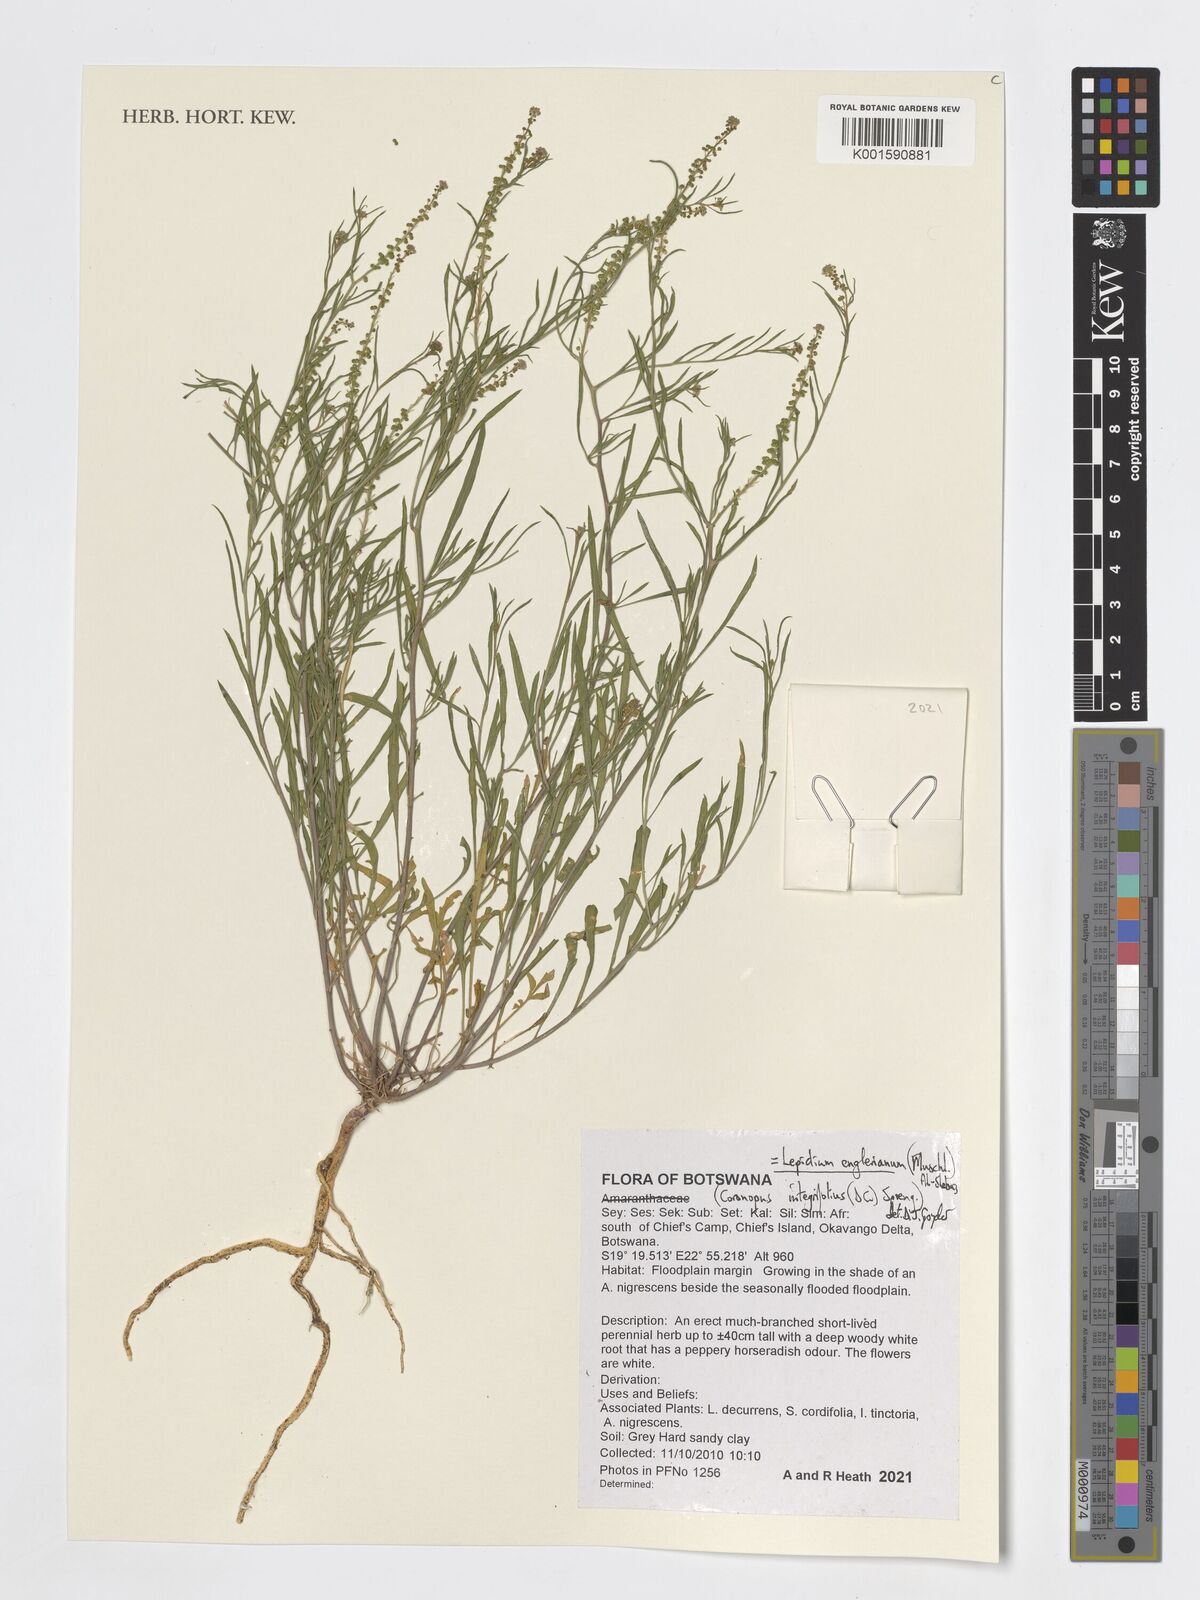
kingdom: Plantae
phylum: Tracheophyta
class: Magnoliopsida
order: Brassicales
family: Brassicaceae
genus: Lepidium
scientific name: Lepidium englerianum
